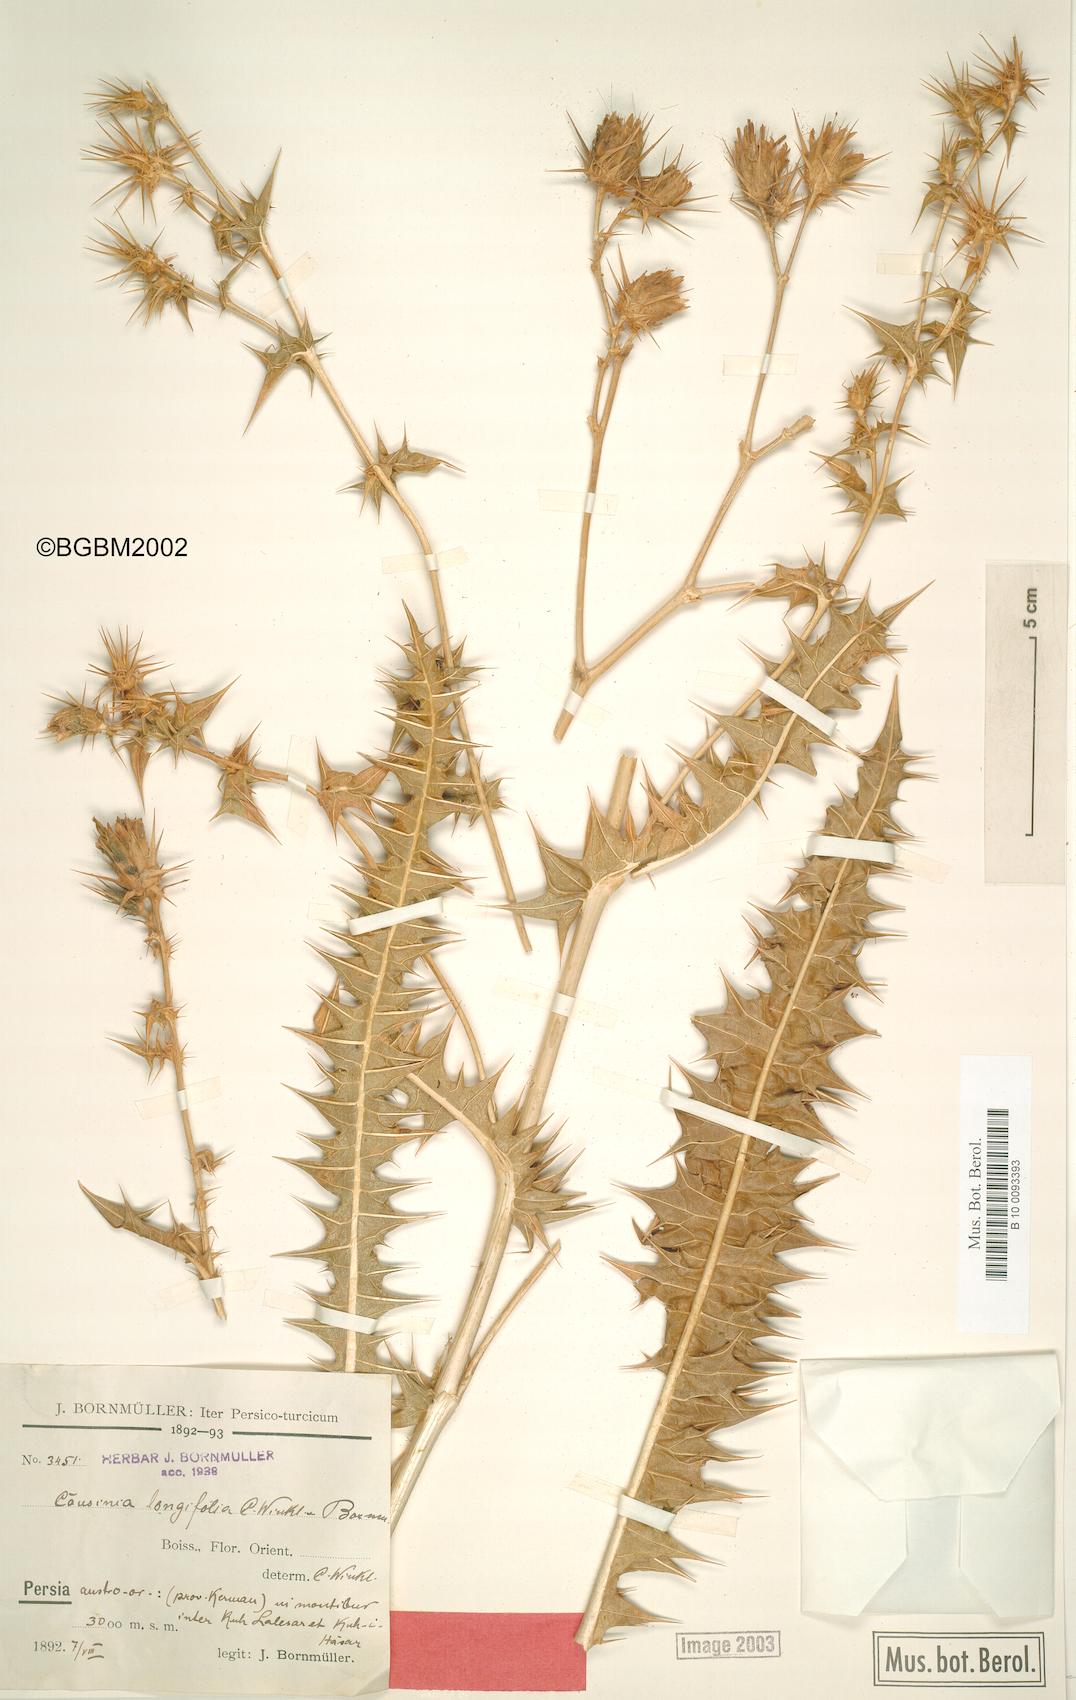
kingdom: Plantae
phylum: Tracheophyta
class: Magnoliopsida
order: Asterales
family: Asteraceae
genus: Cousinia
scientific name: Cousinia longifolia
